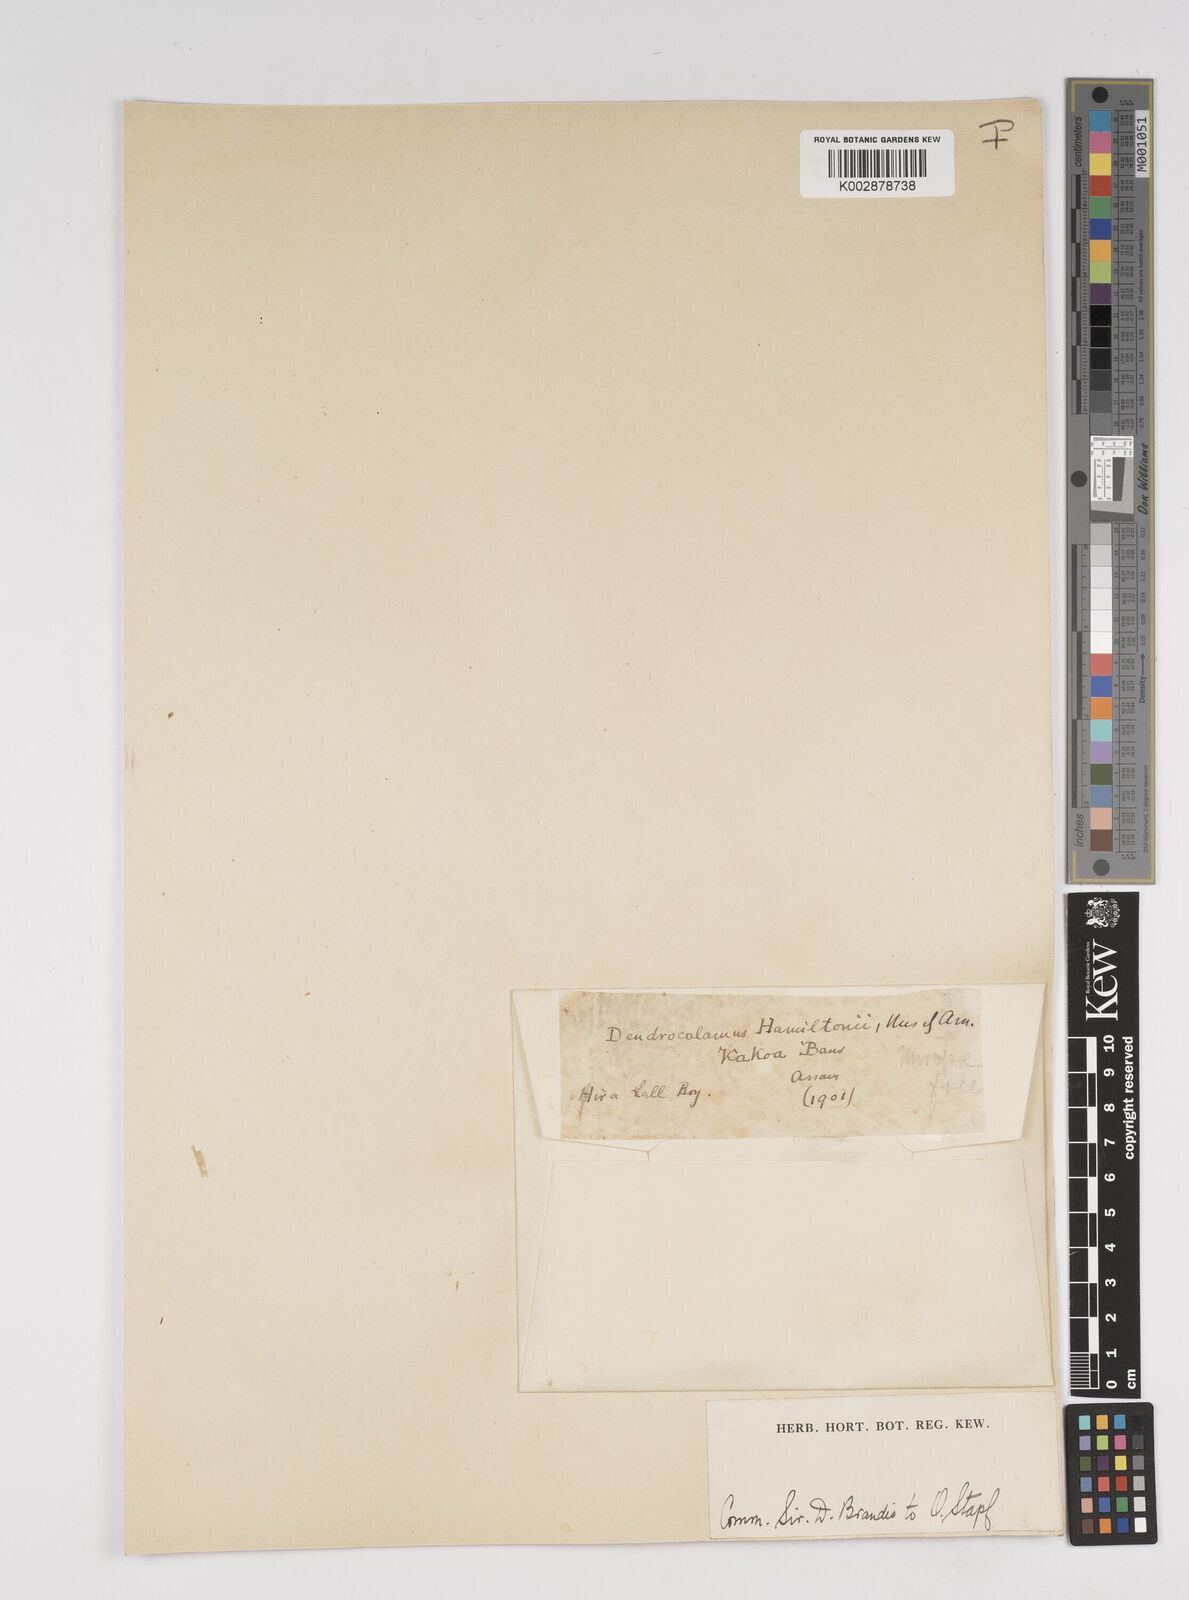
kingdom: Plantae
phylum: Tracheophyta
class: Liliopsida
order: Poales
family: Poaceae
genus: Dendrocalamus
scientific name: Dendrocalamus hamiltonii
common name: Tama bamboo
